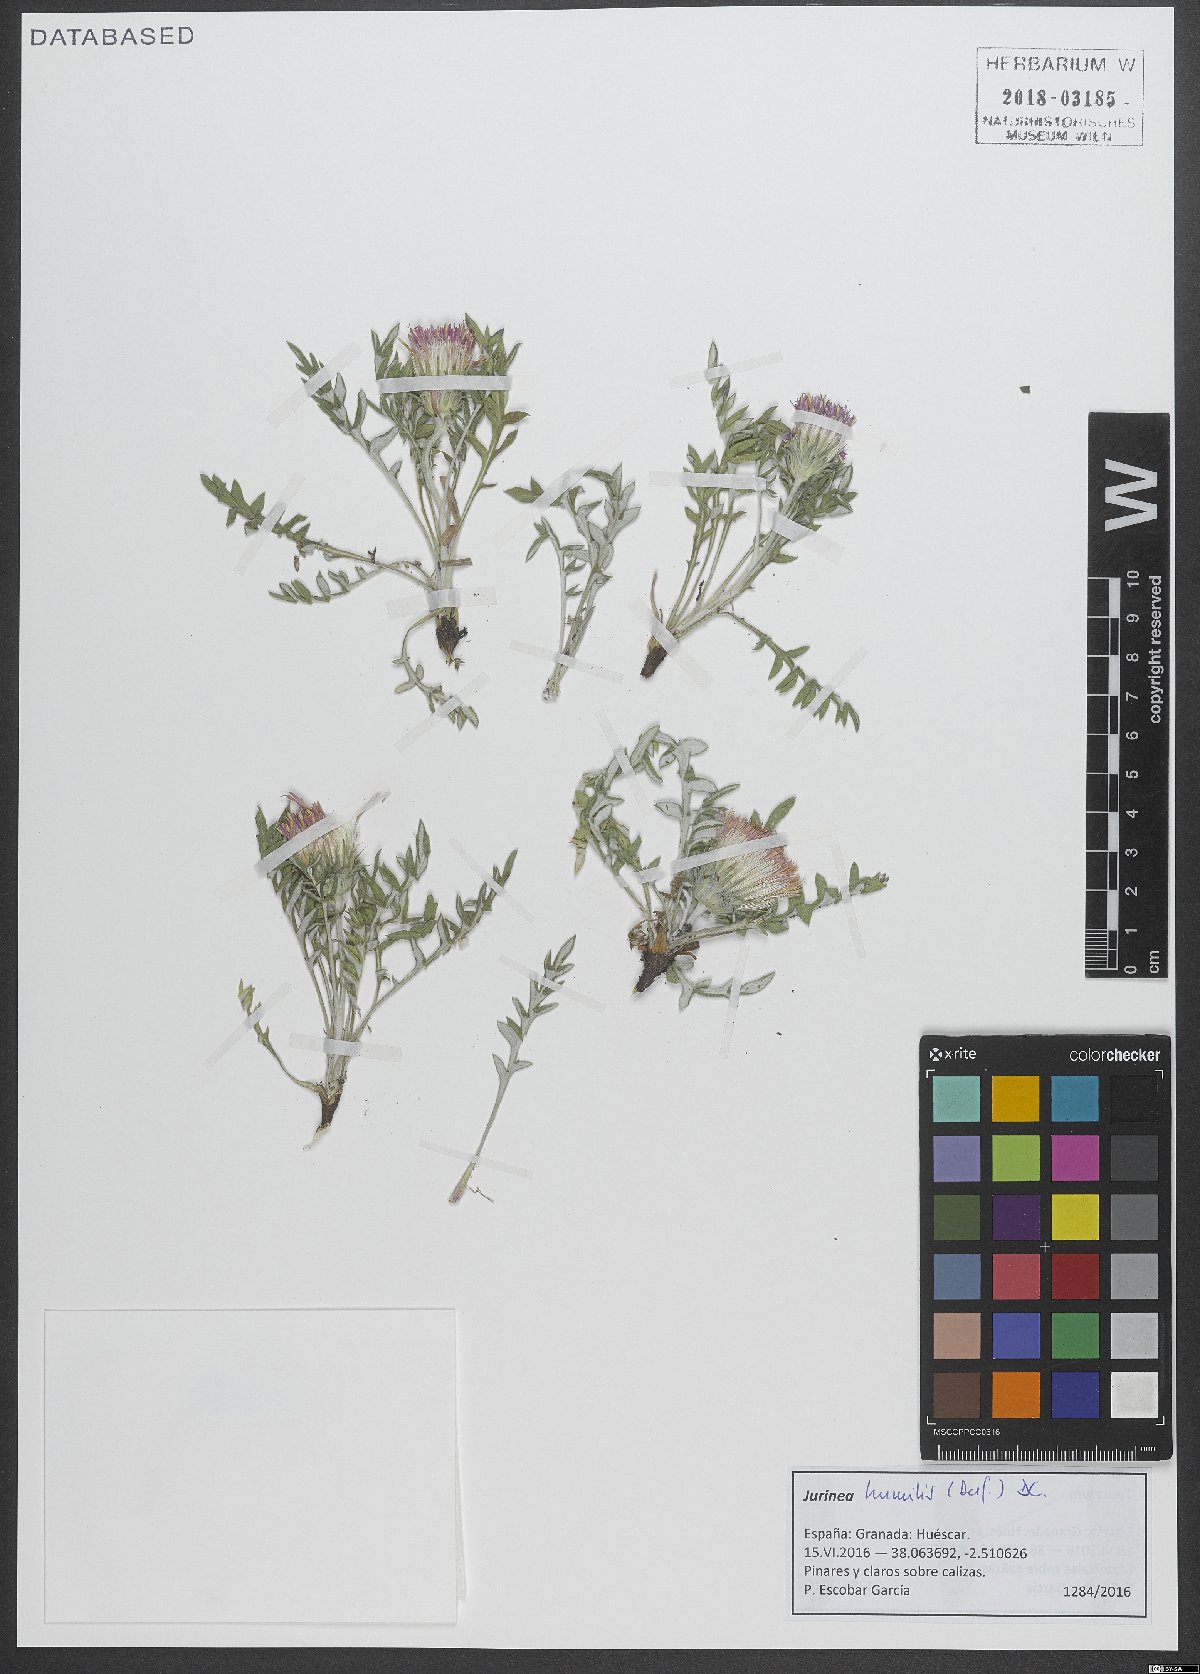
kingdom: Plantae
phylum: Tracheophyta
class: Magnoliopsida
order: Asterales
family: Asteraceae
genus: Jurinea
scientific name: Jurinea humilis
